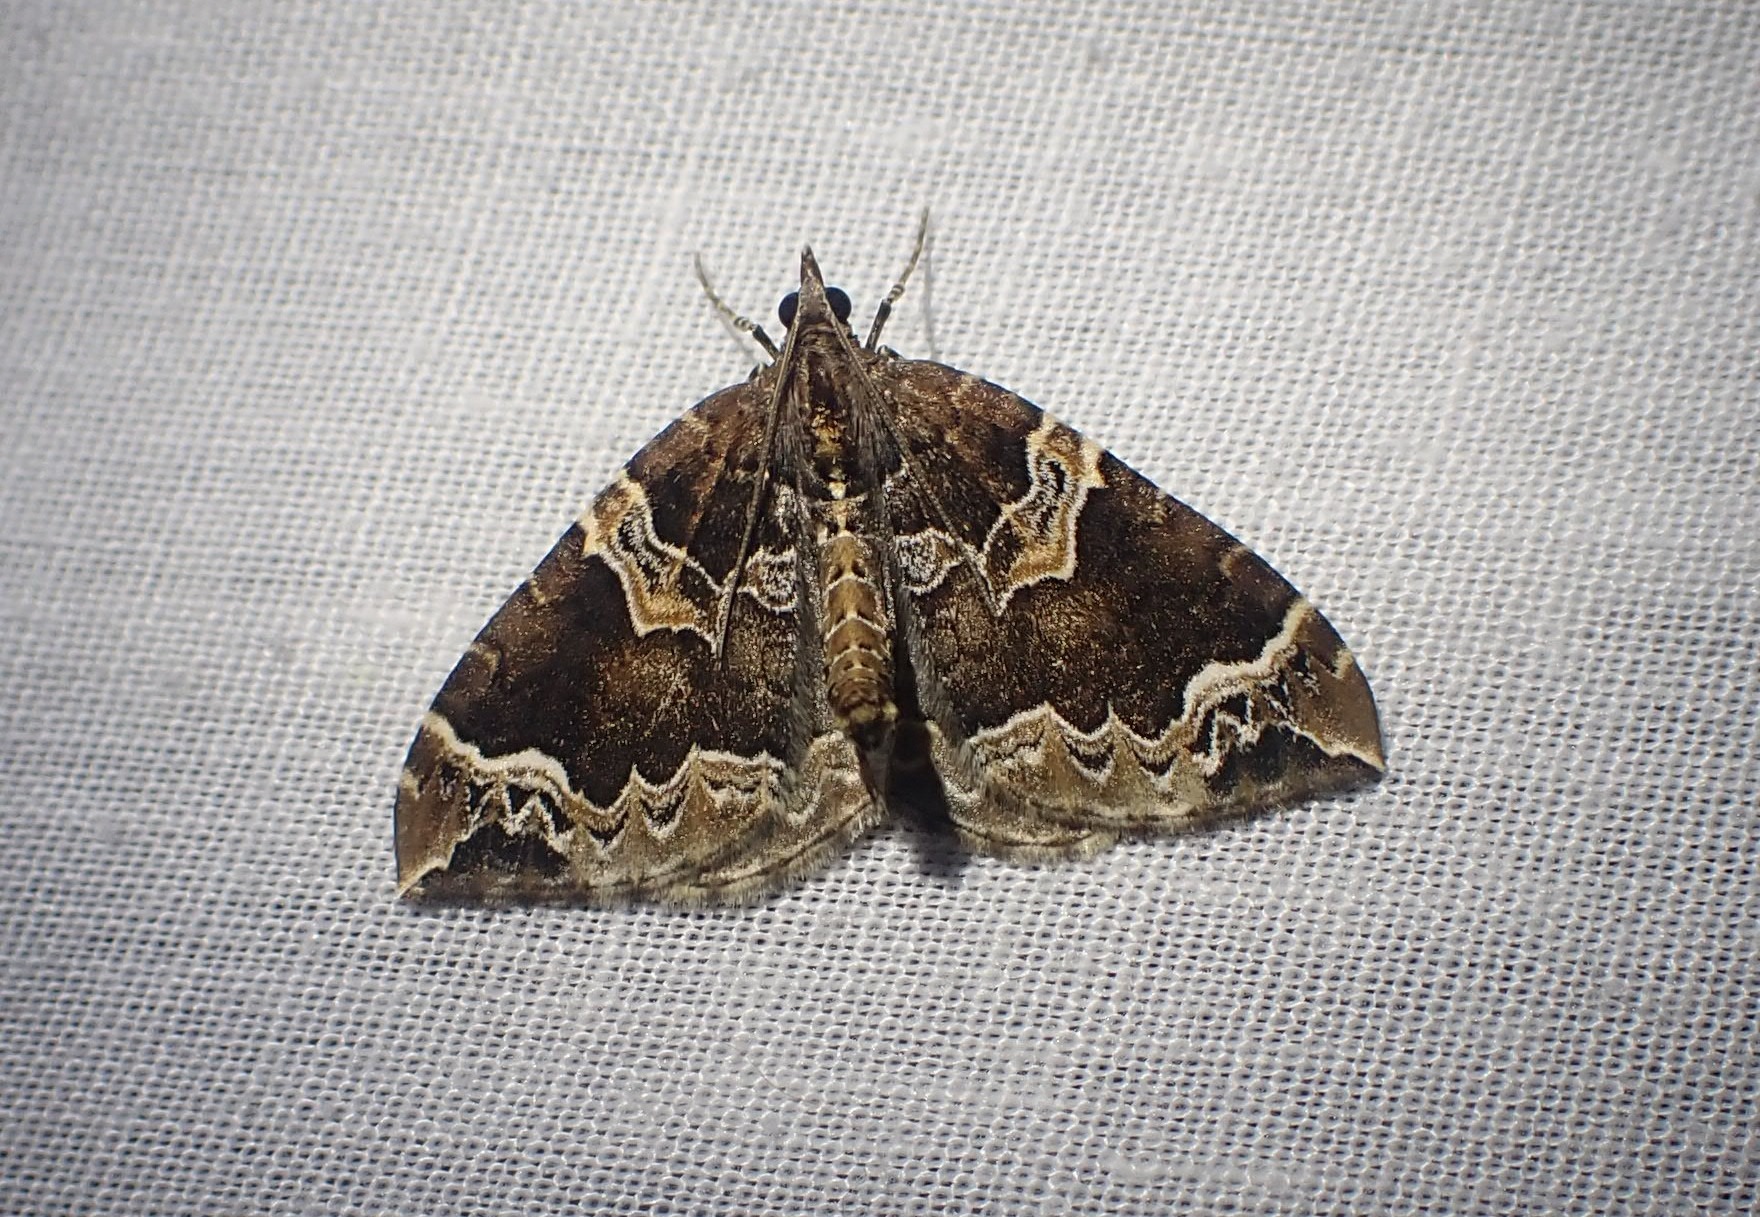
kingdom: Animalia
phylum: Arthropoda
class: Insecta
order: Lepidoptera
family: Geometridae
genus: Eulithis
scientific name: Eulithis prunata
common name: Broget havemåler
